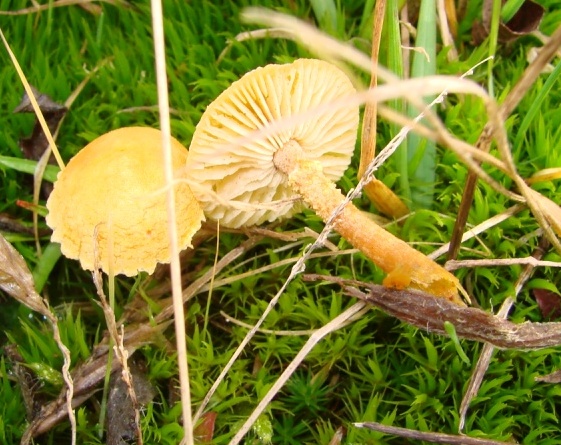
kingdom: Fungi
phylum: Basidiomycota
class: Agaricomycetes
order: Agaricales
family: Tricholomataceae
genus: Cystoderma
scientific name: Cystoderma amianthinum
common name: okkergul grynhat
